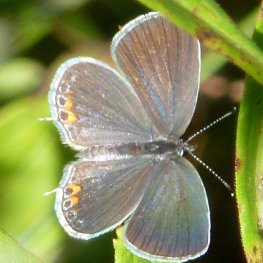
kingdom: Animalia
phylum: Arthropoda
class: Insecta
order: Lepidoptera
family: Lycaenidae
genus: Elkalyce
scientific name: Elkalyce comyntas
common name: Eastern Tailed-Blue
